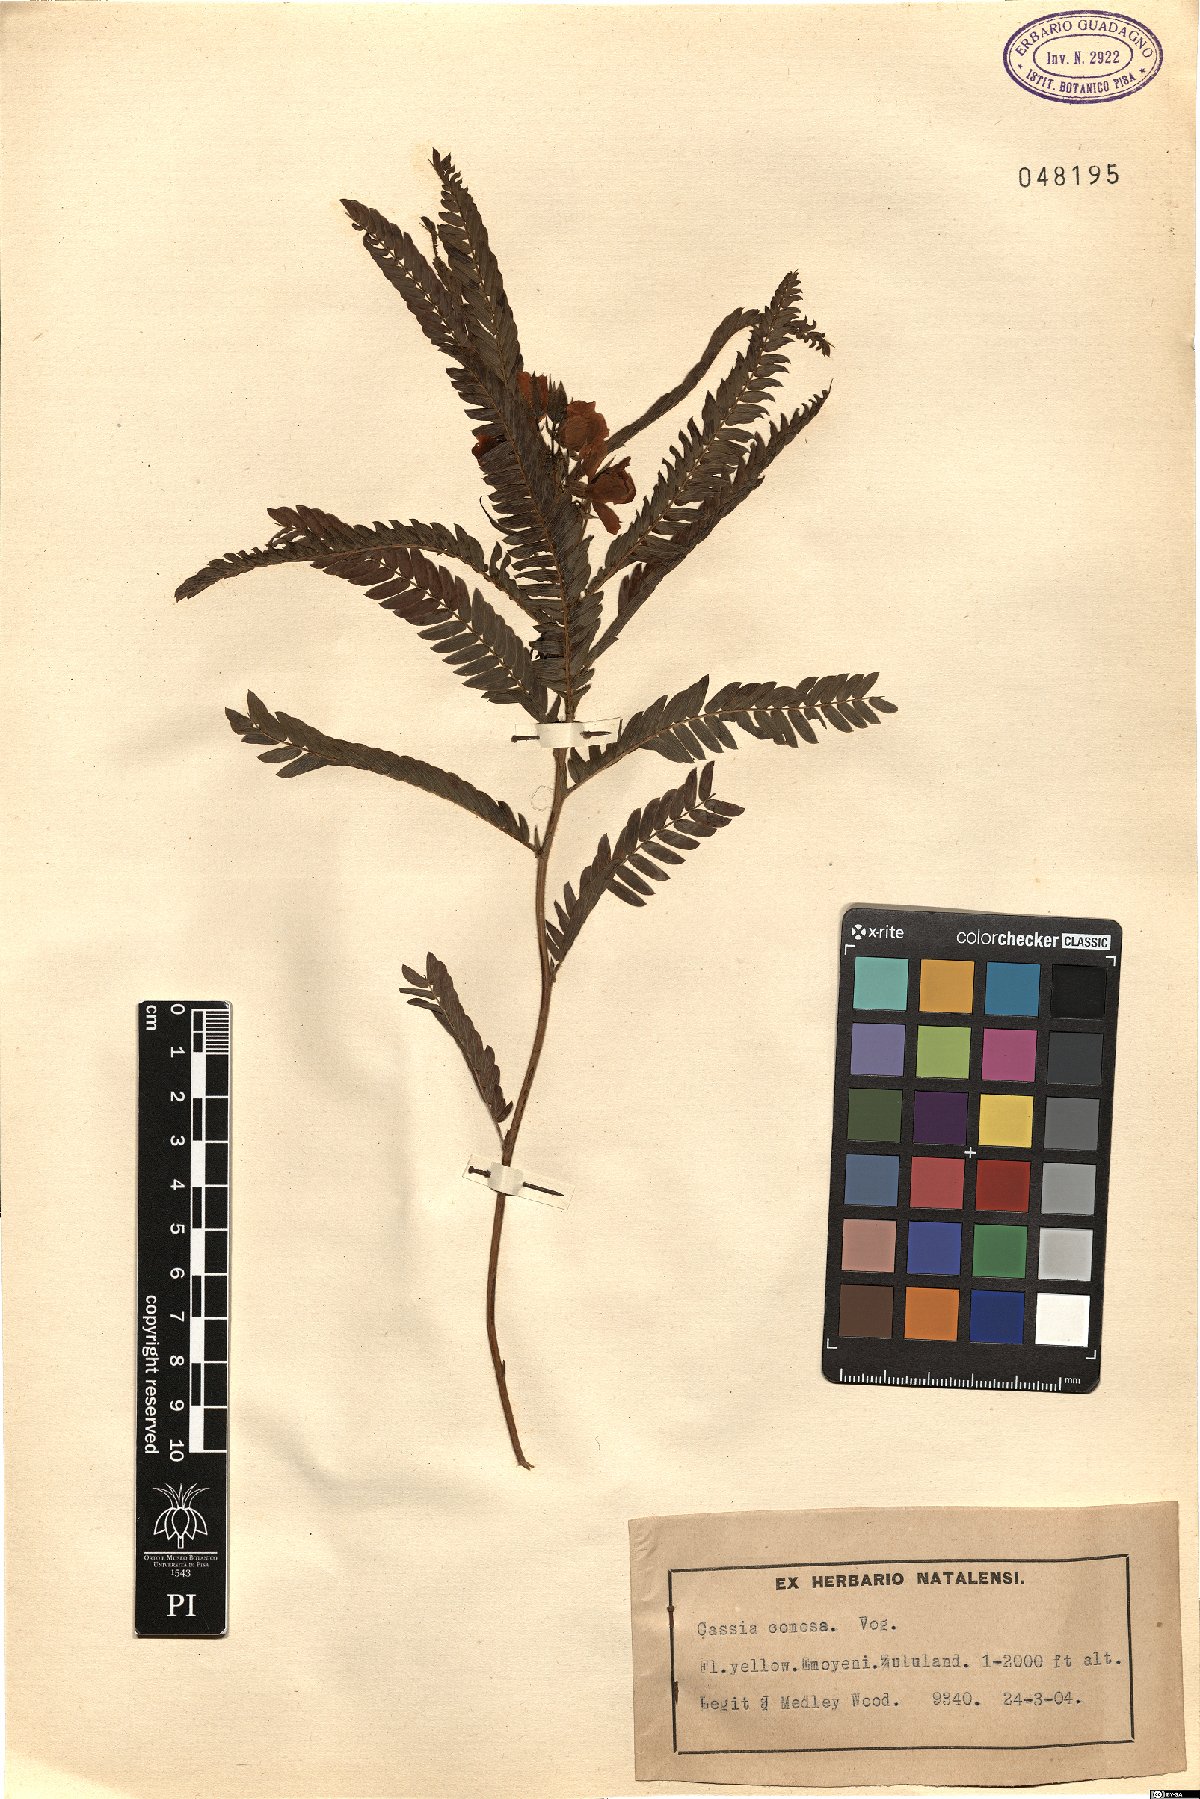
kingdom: Plantae
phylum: Tracheophyta
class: Magnoliopsida
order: Fabales
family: Fabaceae
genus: Chamaecrista
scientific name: Chamaecrista comosa
